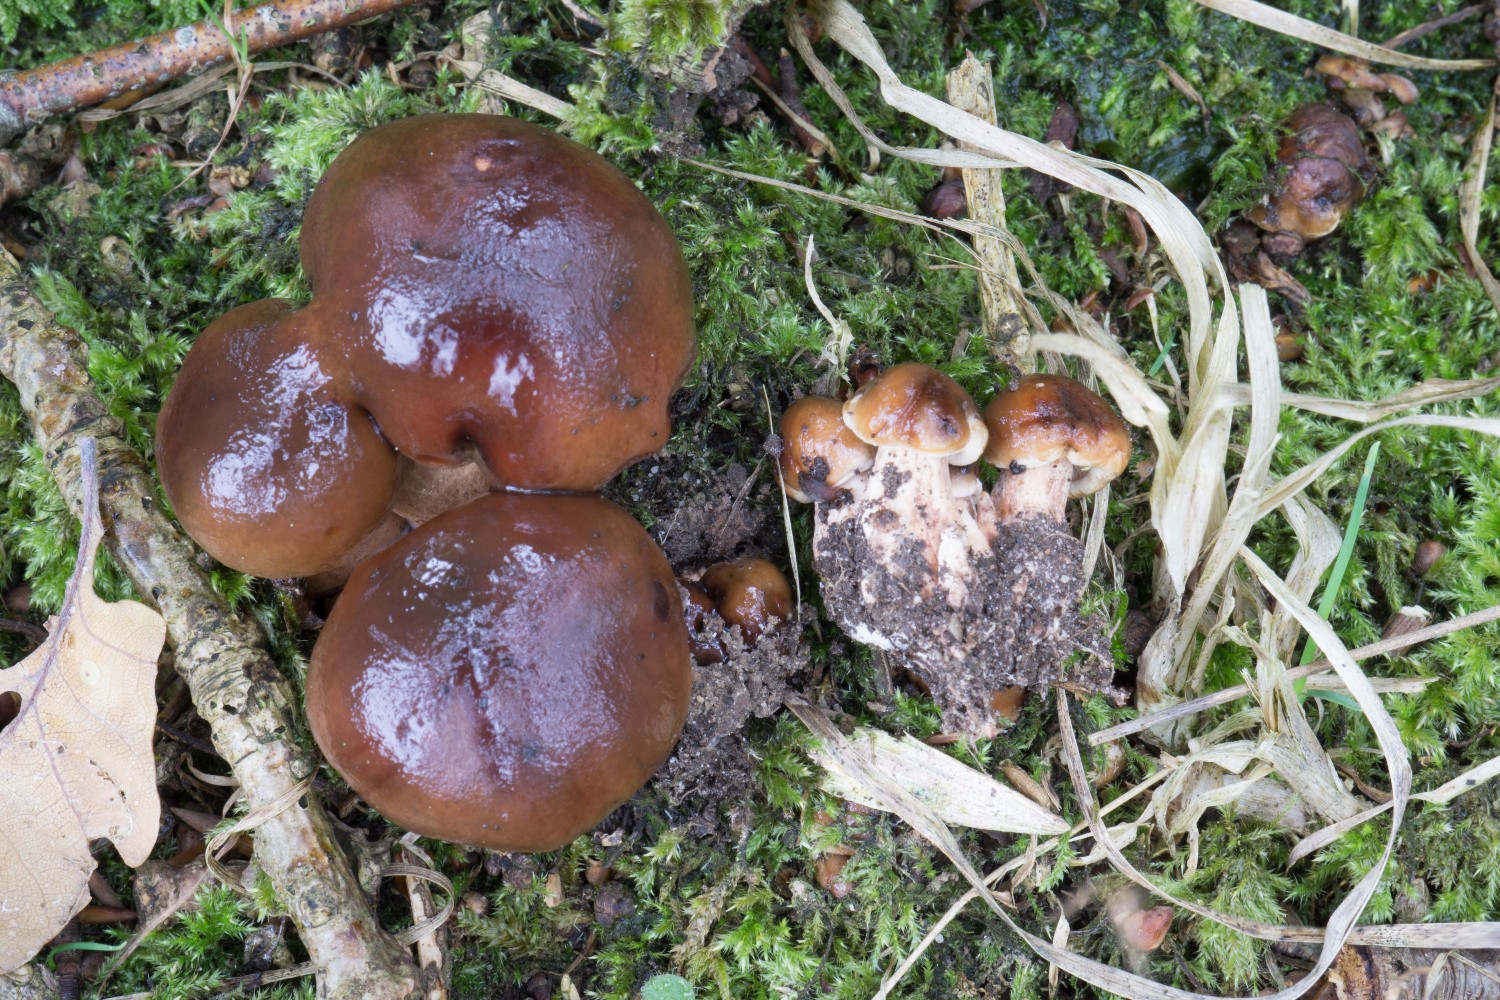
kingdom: Fungi
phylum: Basidiomycota
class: Agaricomycetes
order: Agaricales
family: Tricholomataceae
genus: Tricholoma
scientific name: Tricholoma ustale
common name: sveden ridderhat
